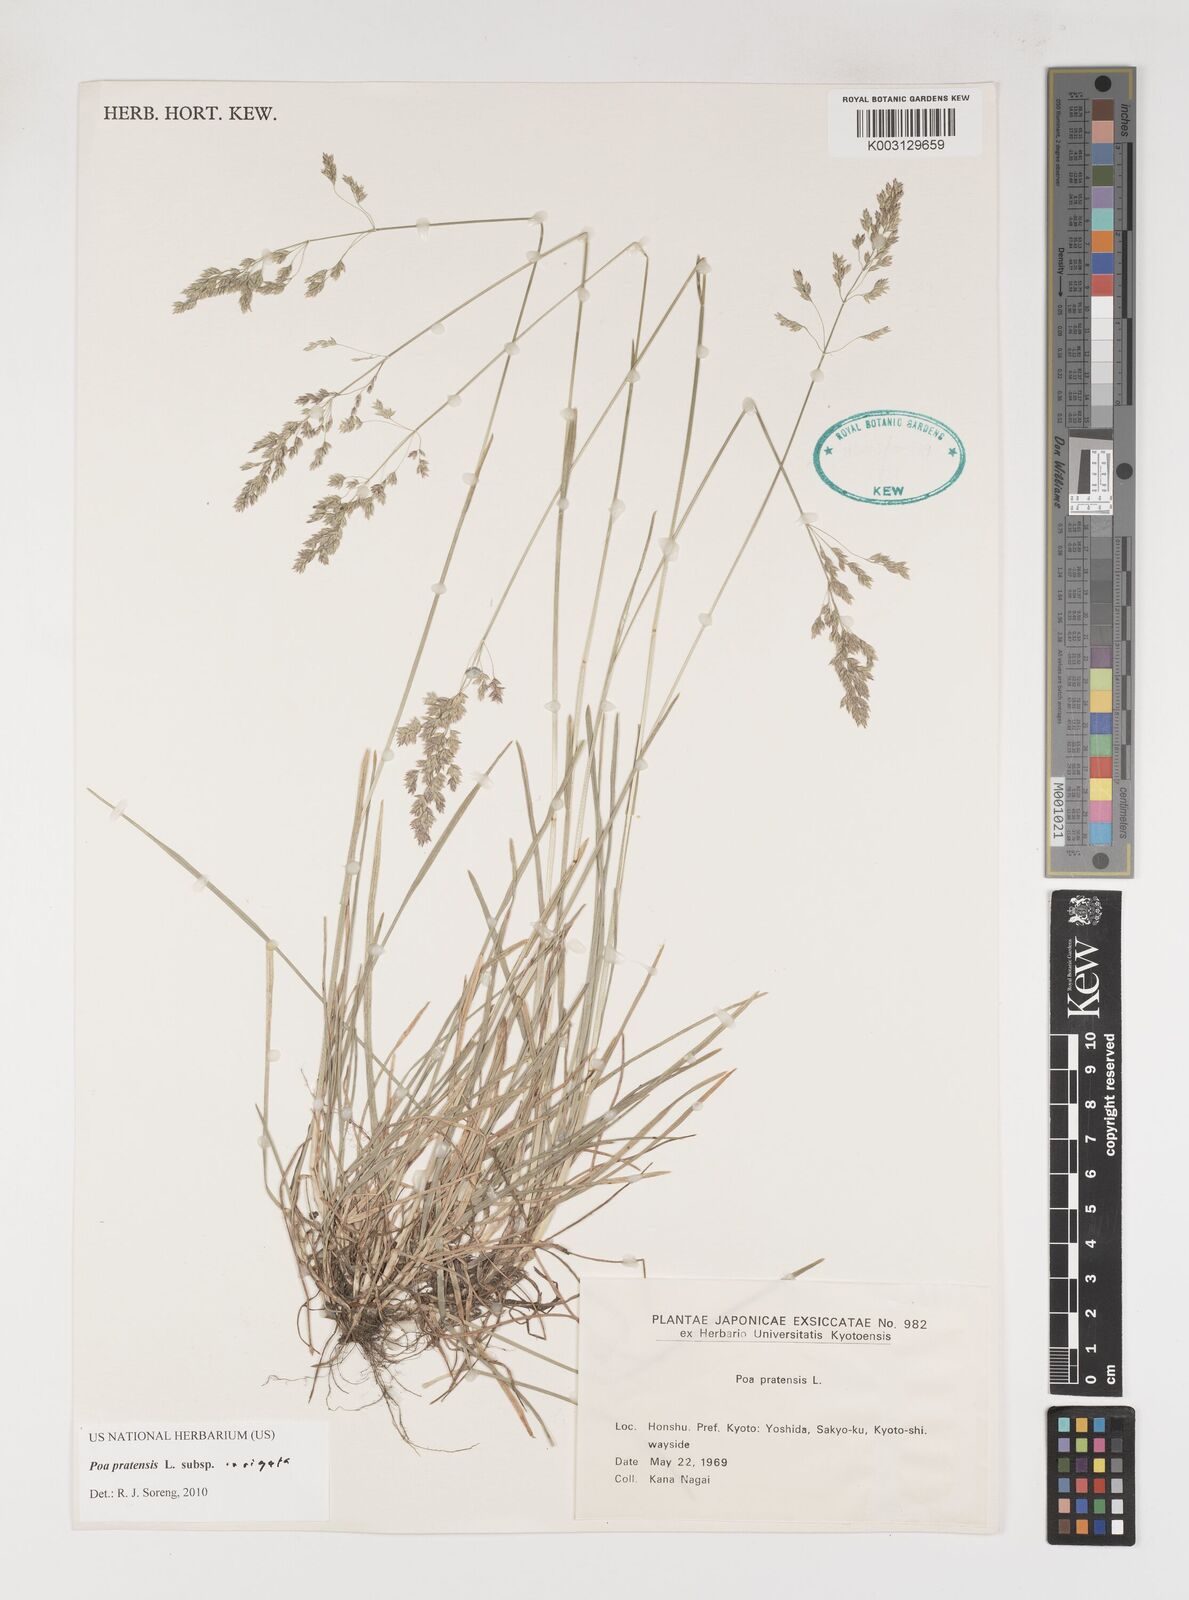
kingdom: Plantae
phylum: Tracheophyta
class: Liliopsida
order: Poales
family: Poaceae
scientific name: Poaceae
